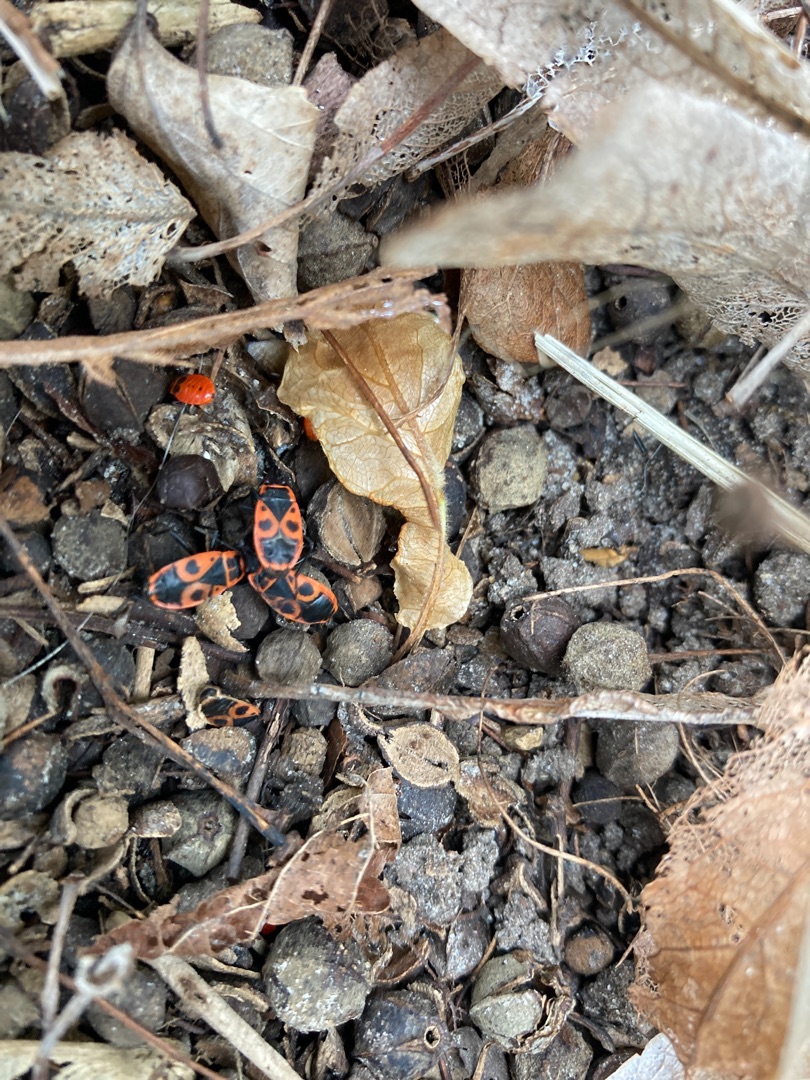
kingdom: Animalia
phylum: Arthropoda
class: Insecta
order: Hemiptera
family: Pyrrhocoridae
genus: Pyrrhocoris
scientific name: Pyrrhocoris apterus
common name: Ildtæge
